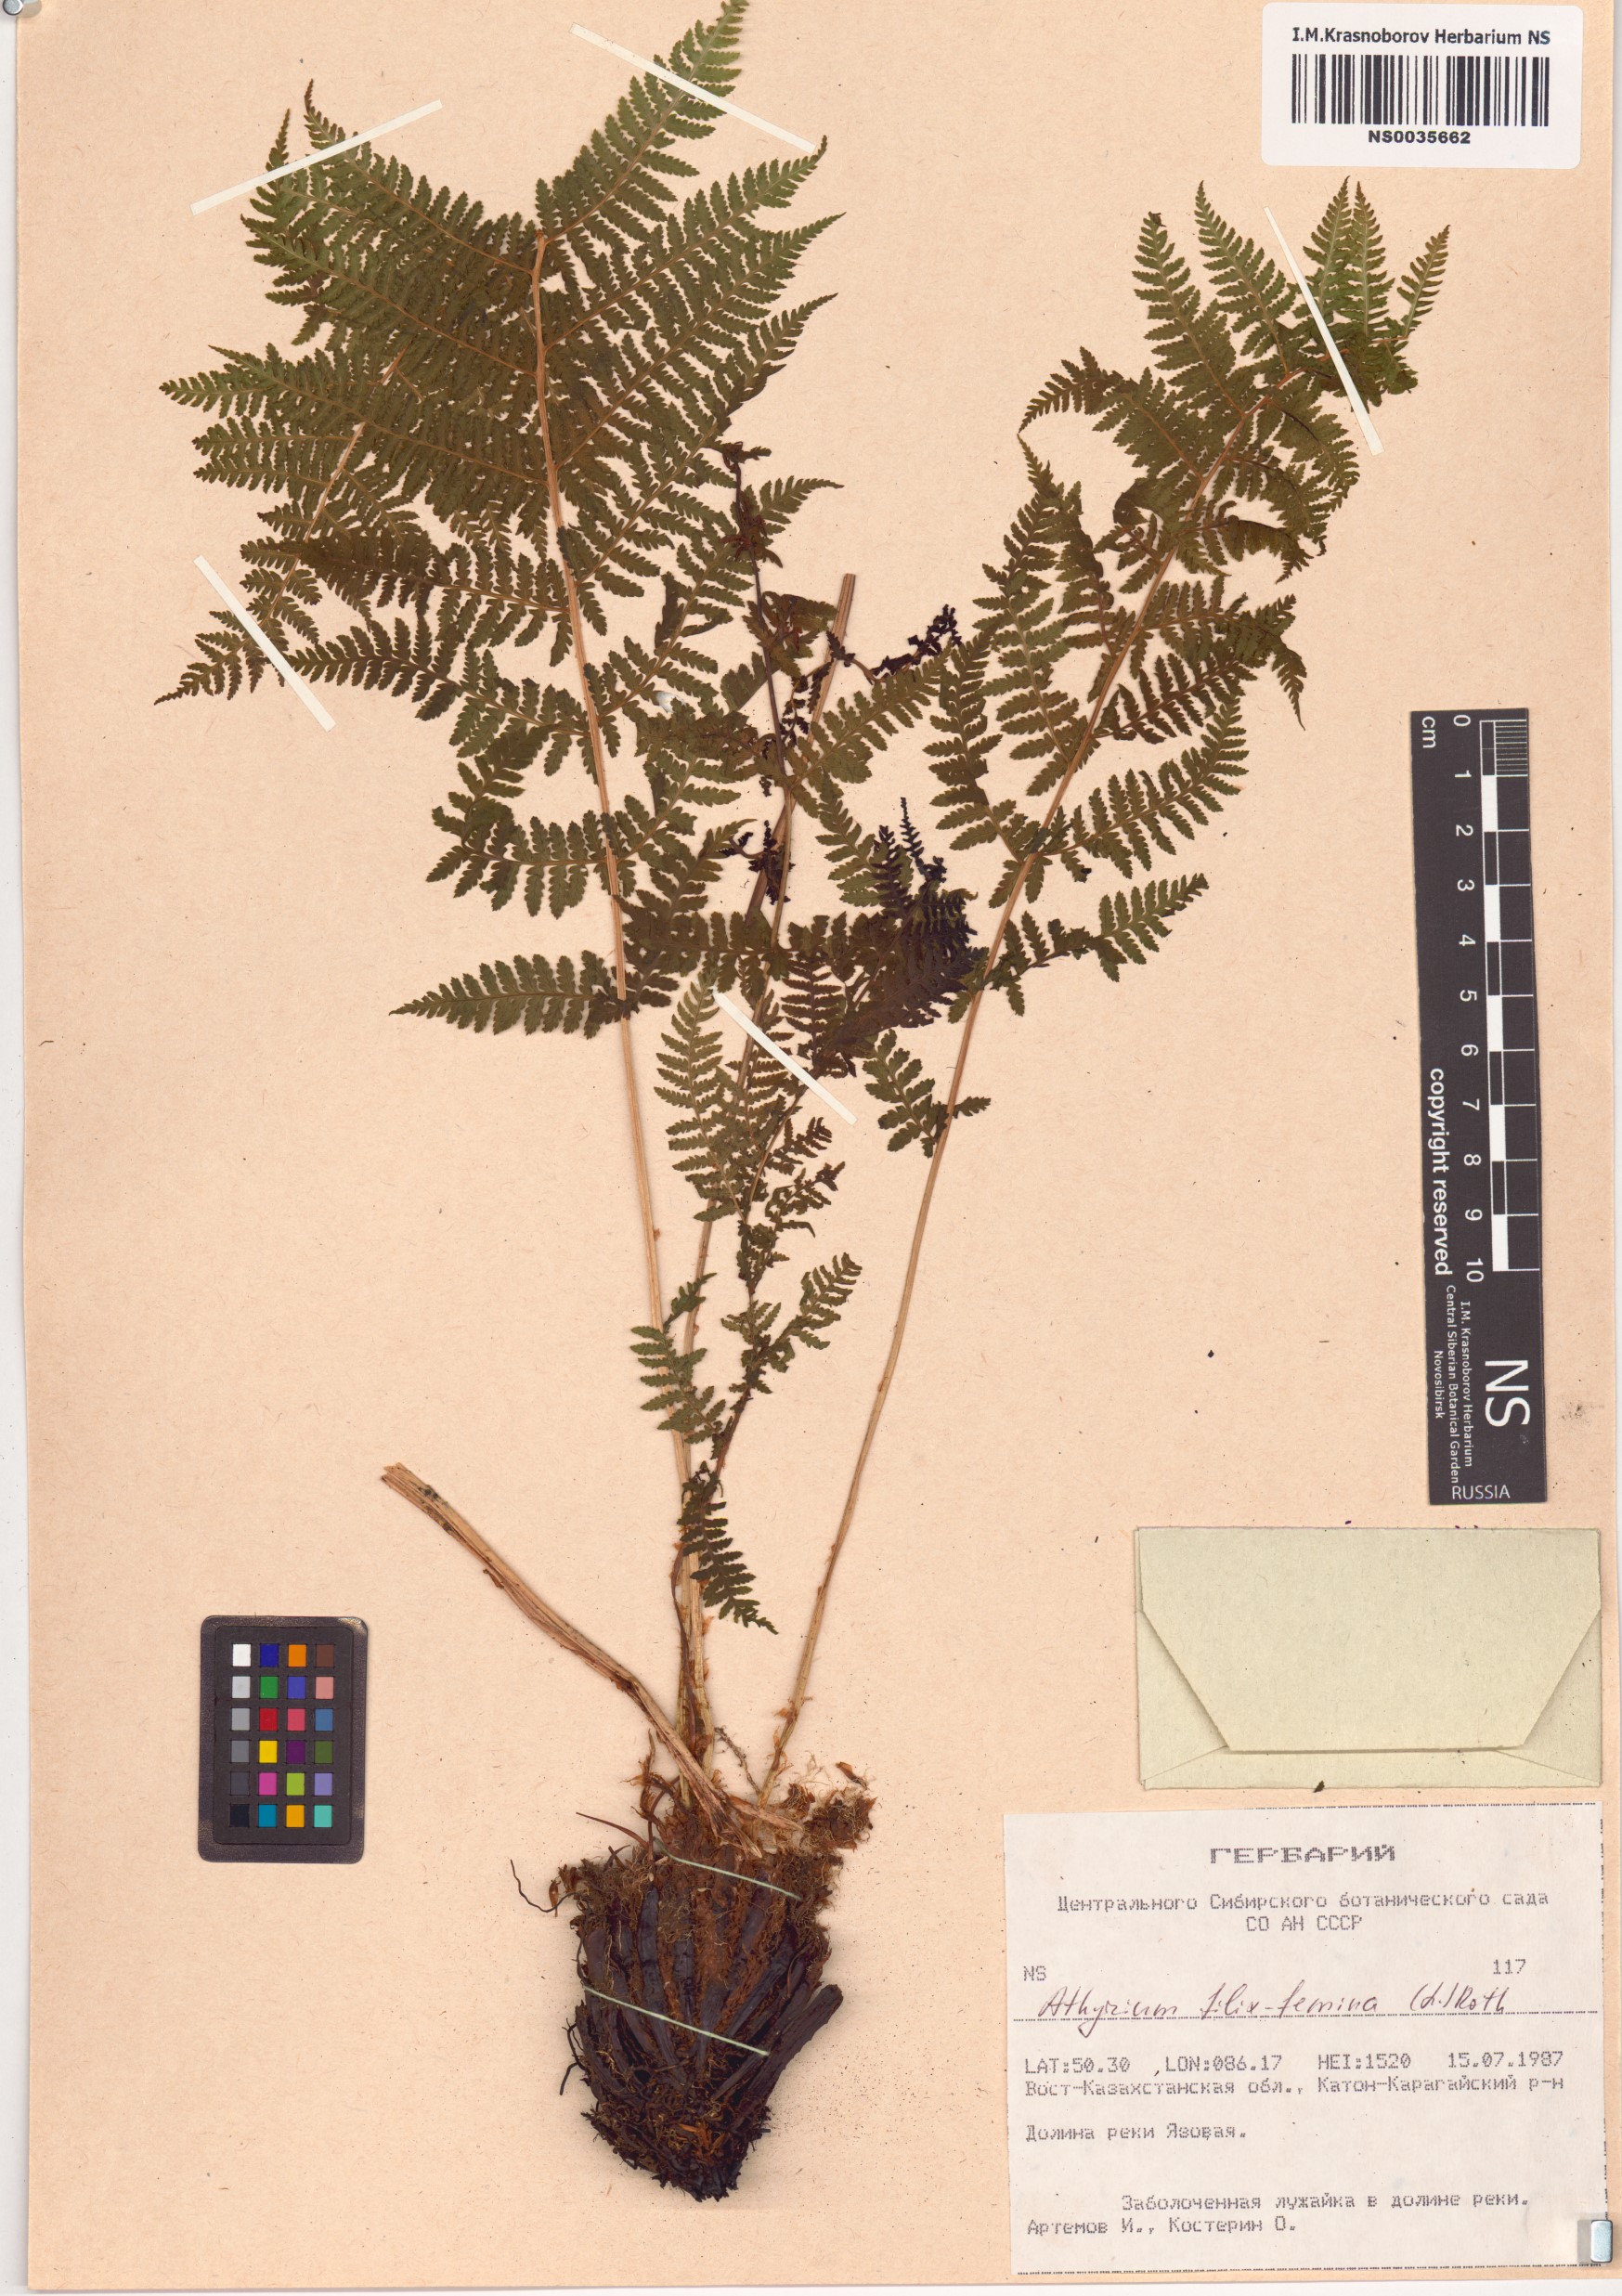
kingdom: Plantae
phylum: Tracheophyta
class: Polypodiopsida
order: Polypodiales
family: Athyriaceae
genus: Athyrium
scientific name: Athyrium filix-femina
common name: Lady fern
